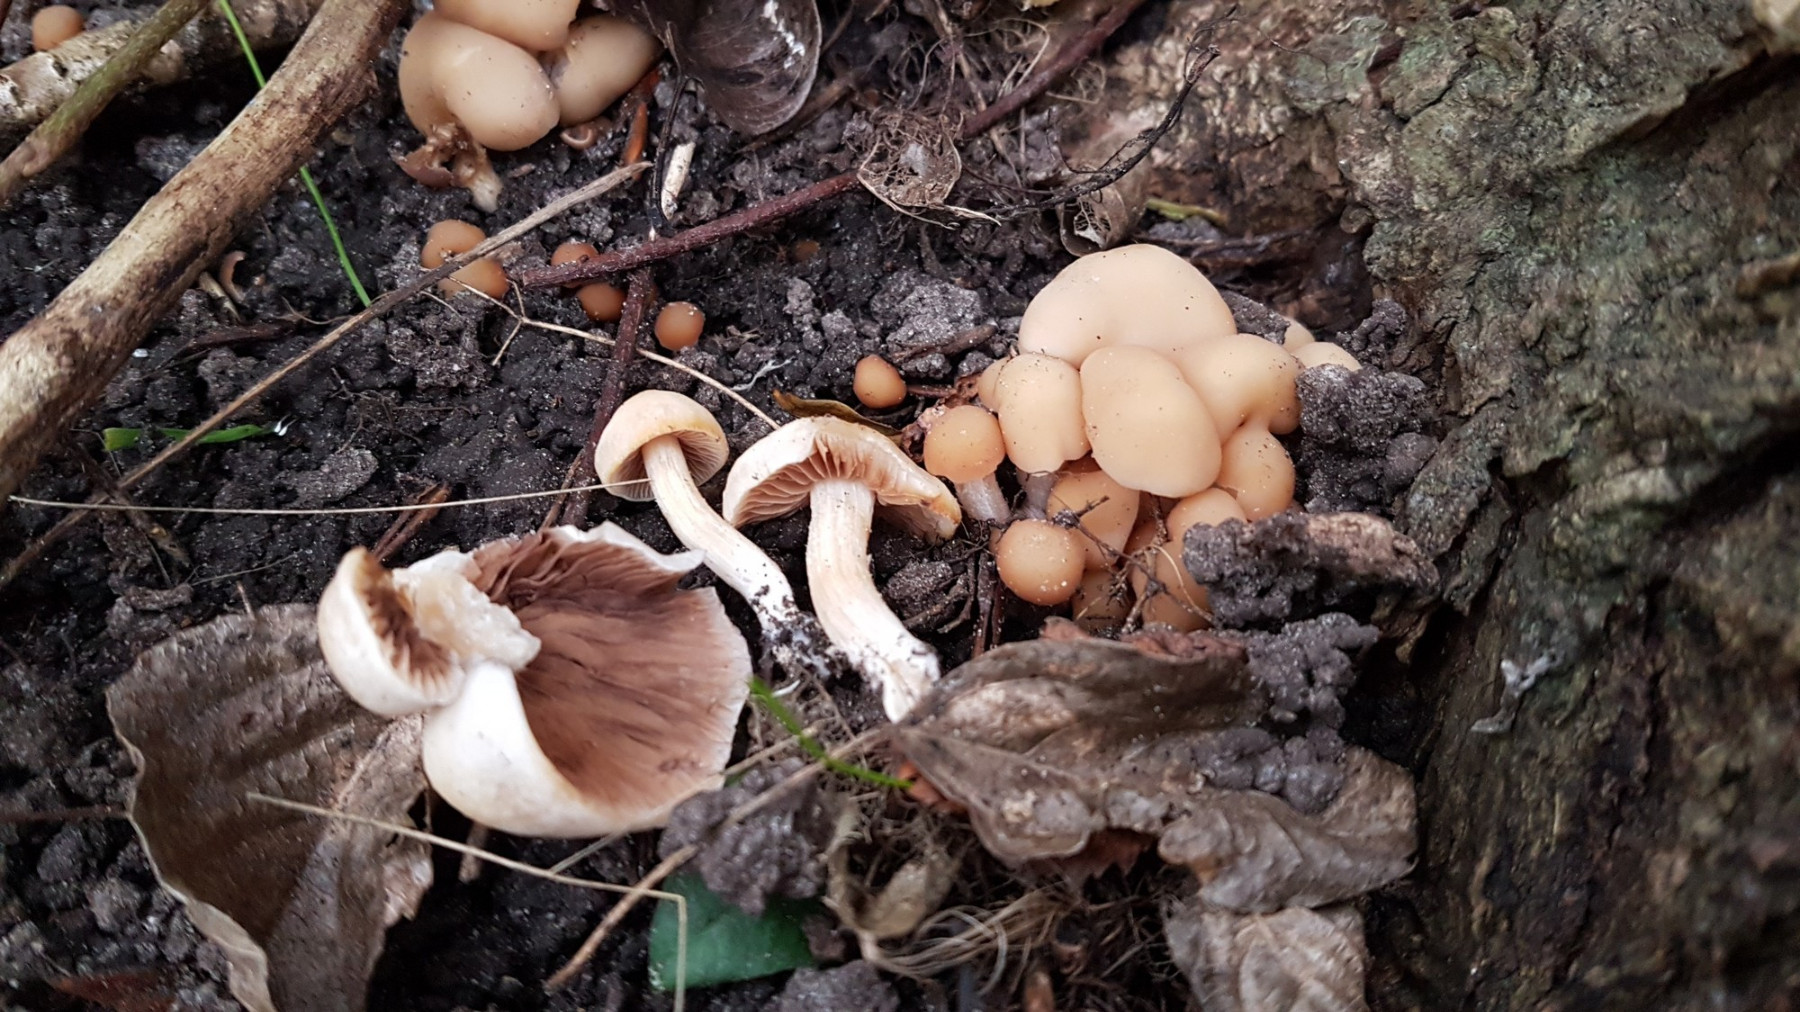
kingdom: Fungi
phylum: Basidiomycota
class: Agaricomycetes
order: Agaricales
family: Psathyrellaceae
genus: Homophron
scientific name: Homophron cernuum
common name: hvidlig mørkhat
